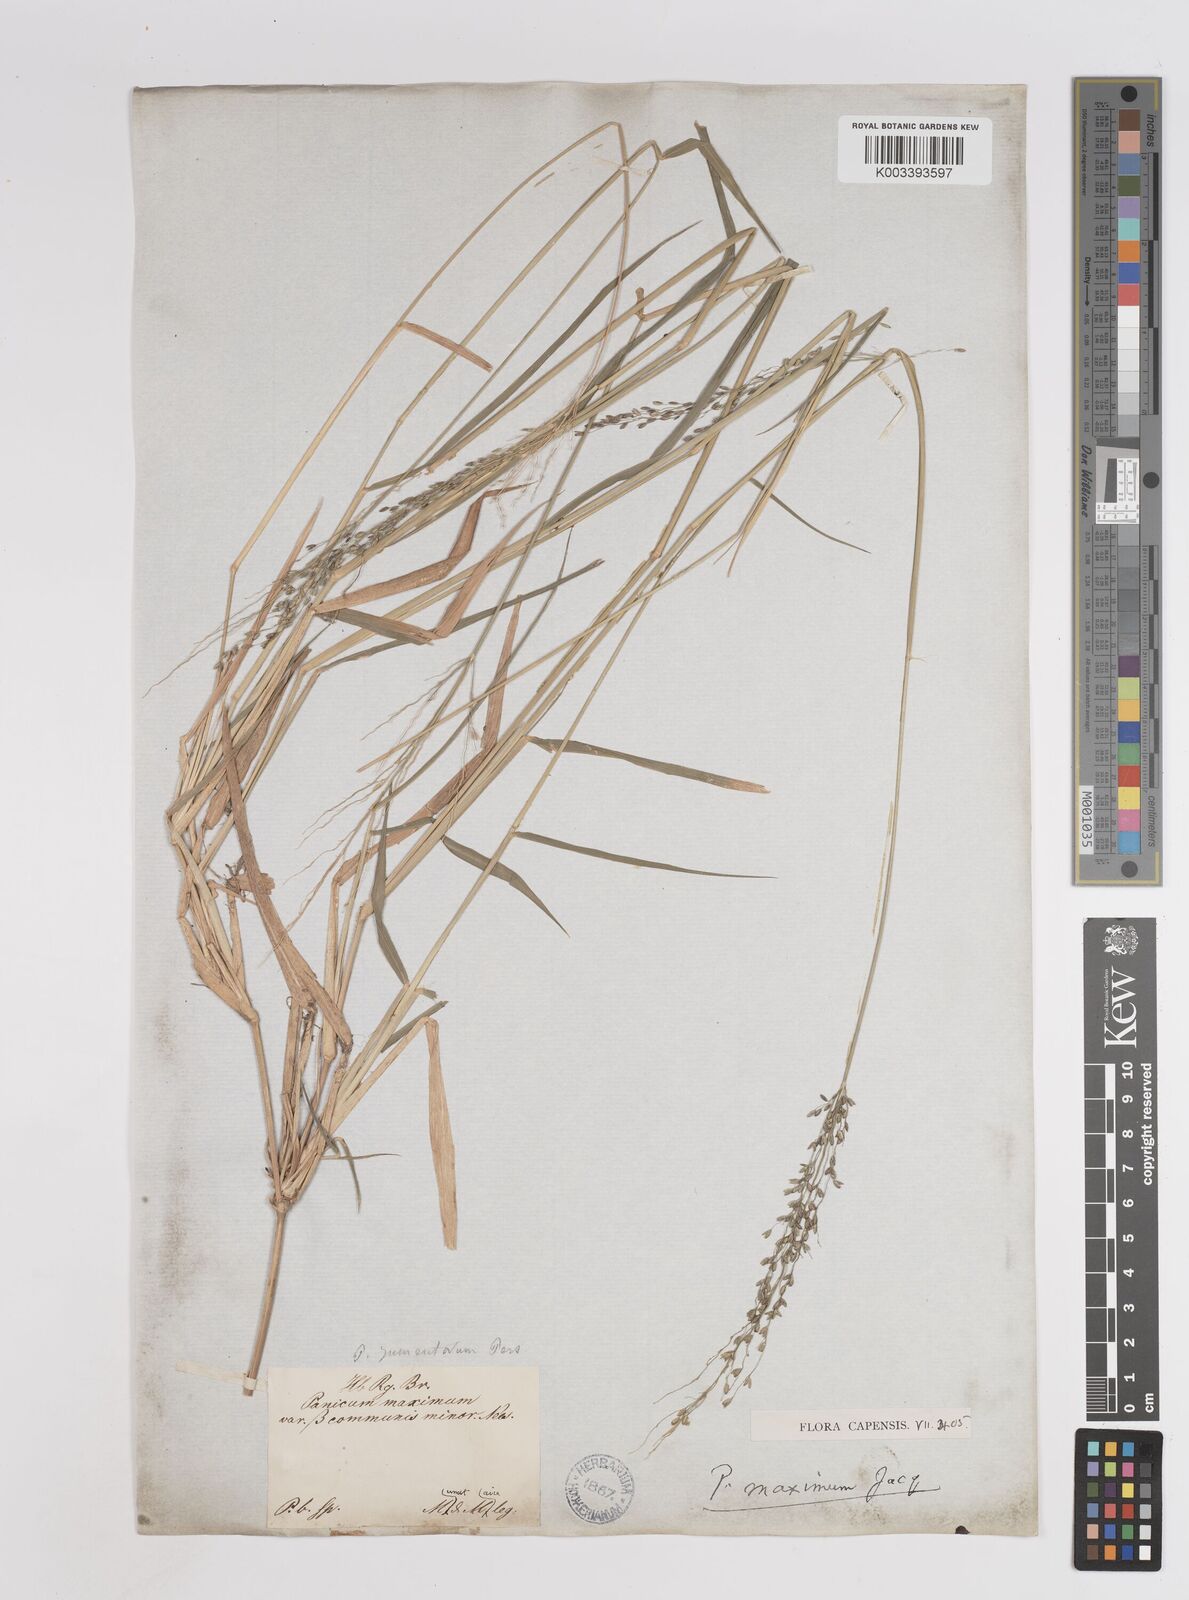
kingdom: Plantae
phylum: Tracheophyta
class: Liliopsida
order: Poales
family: Poaceae
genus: Megathyrsus
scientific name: Megathyrsus maximus
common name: Guineagrass
